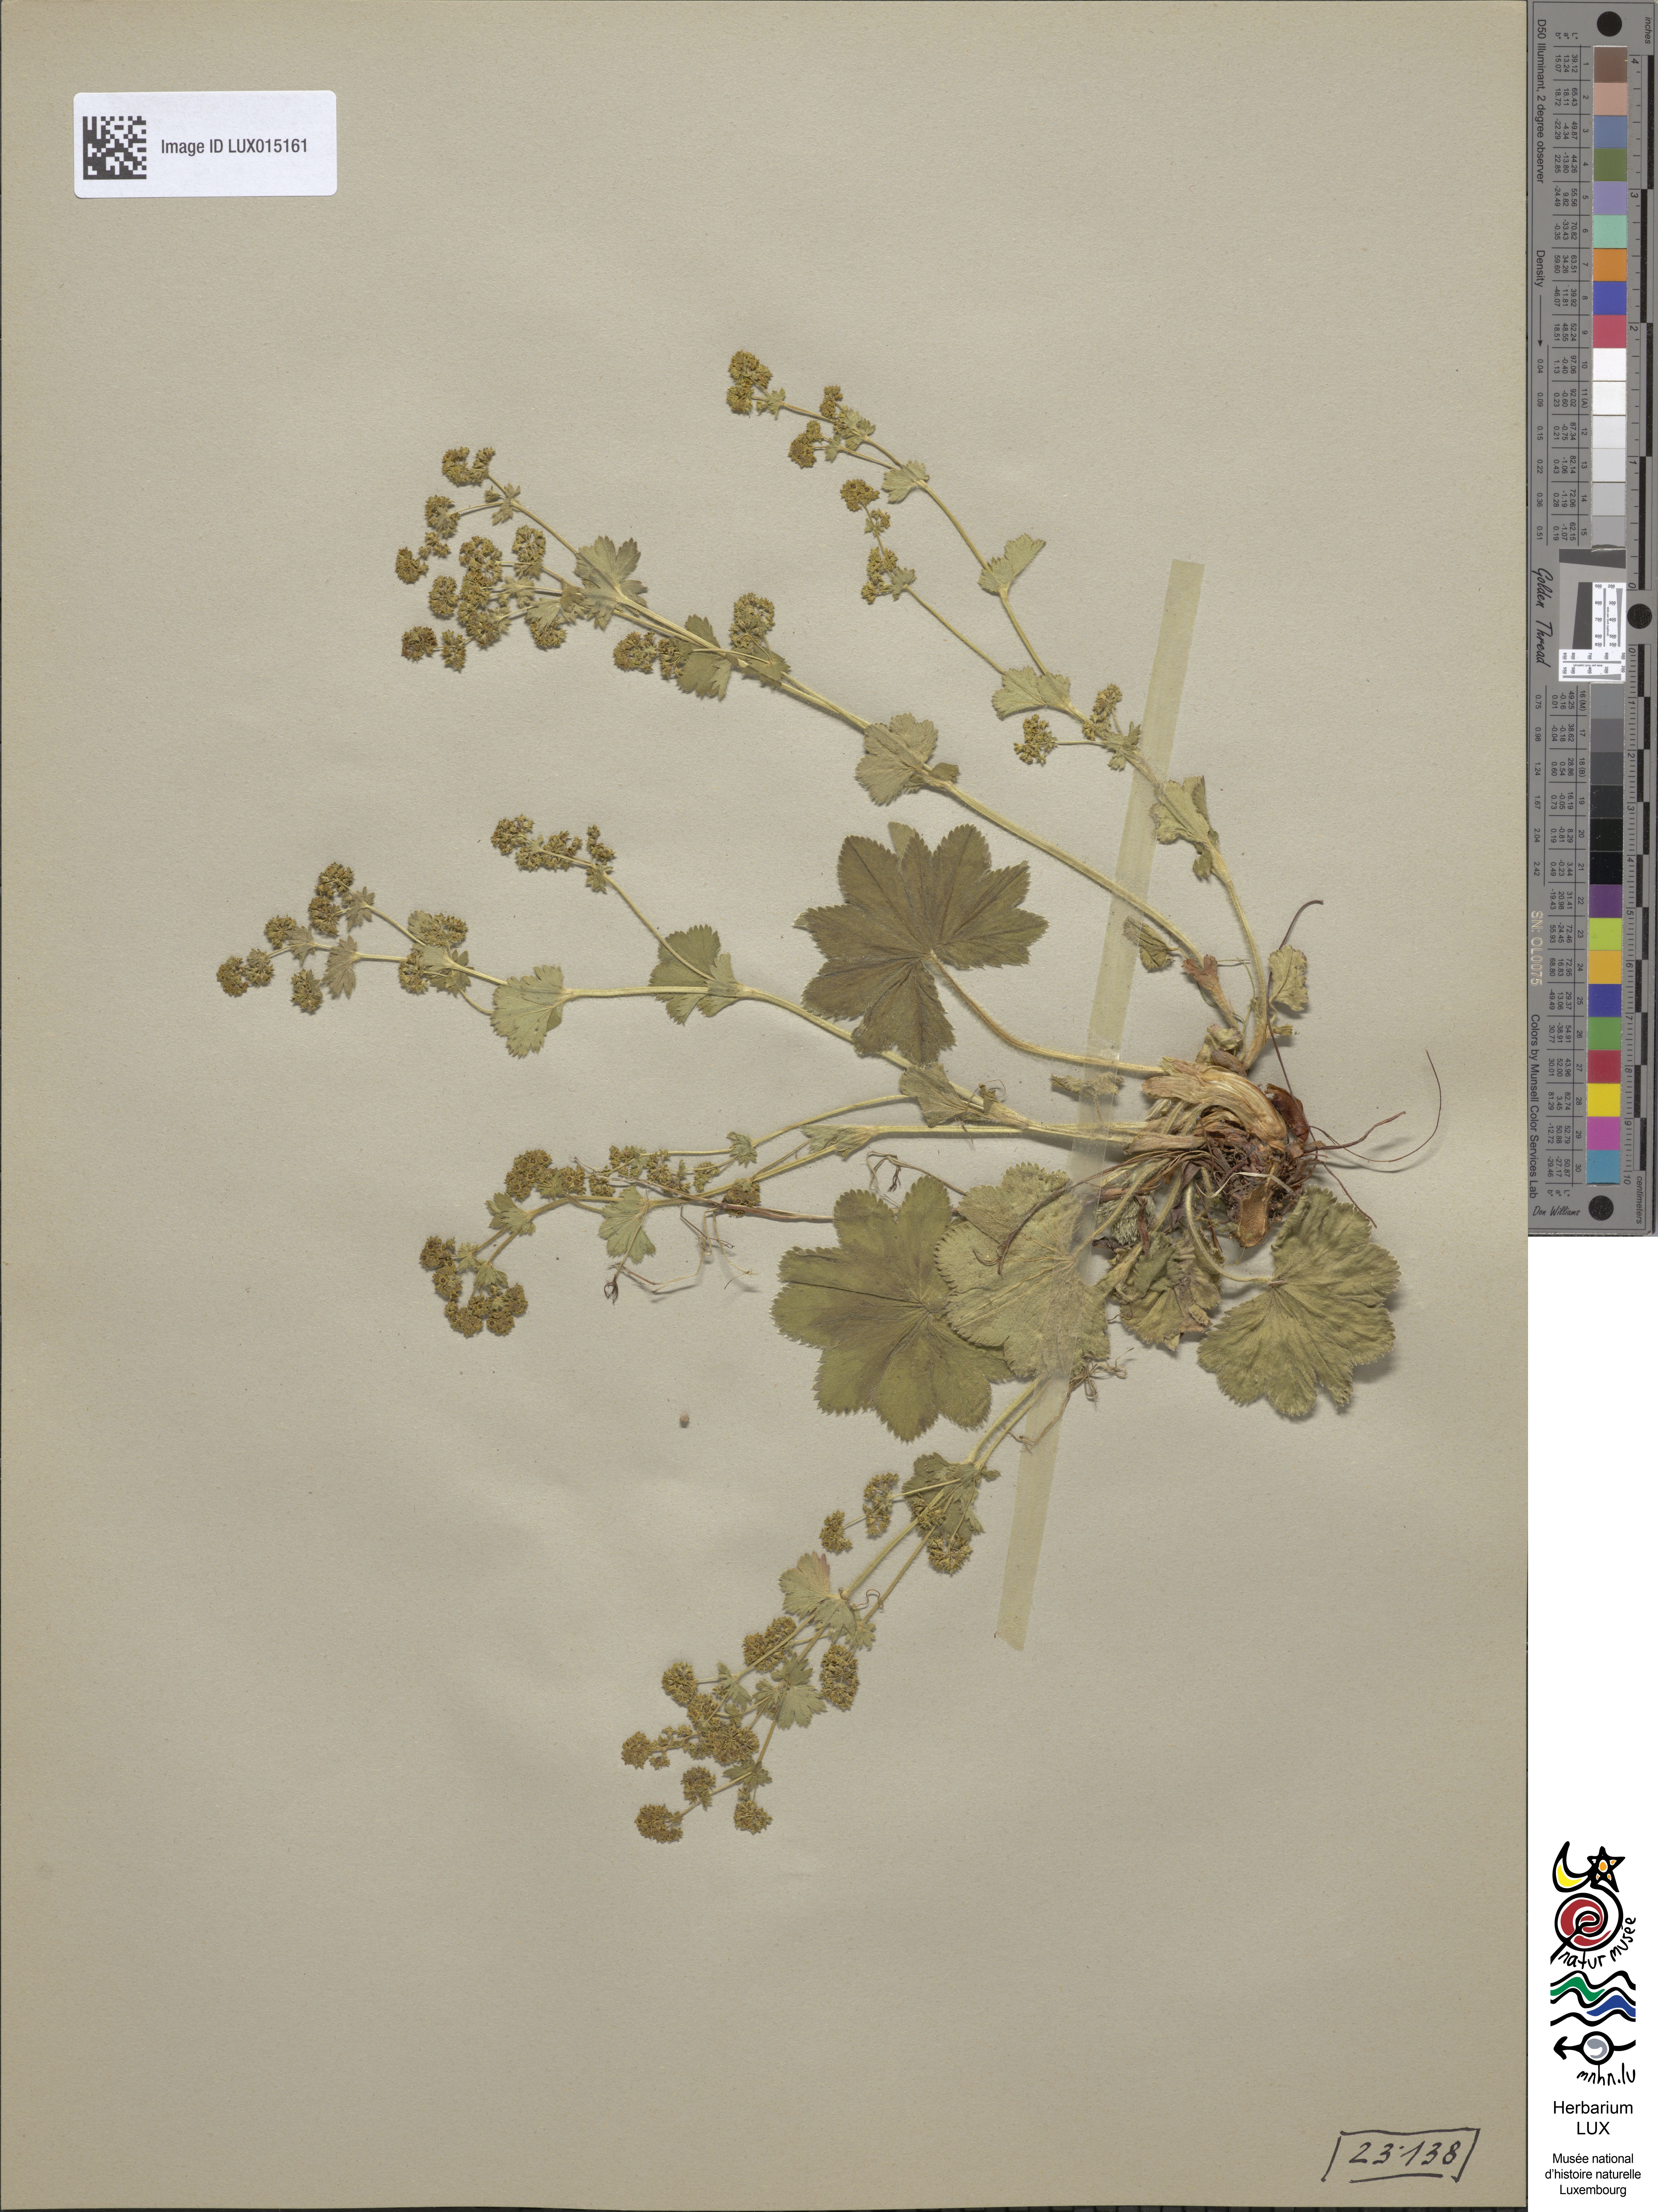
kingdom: Plantae
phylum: Tracheophyta
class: Magnoliopsida
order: Rosales
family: Rosaceae
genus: Alchemilla
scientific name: Alchemilla monticola
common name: Hairy lady's mantle
